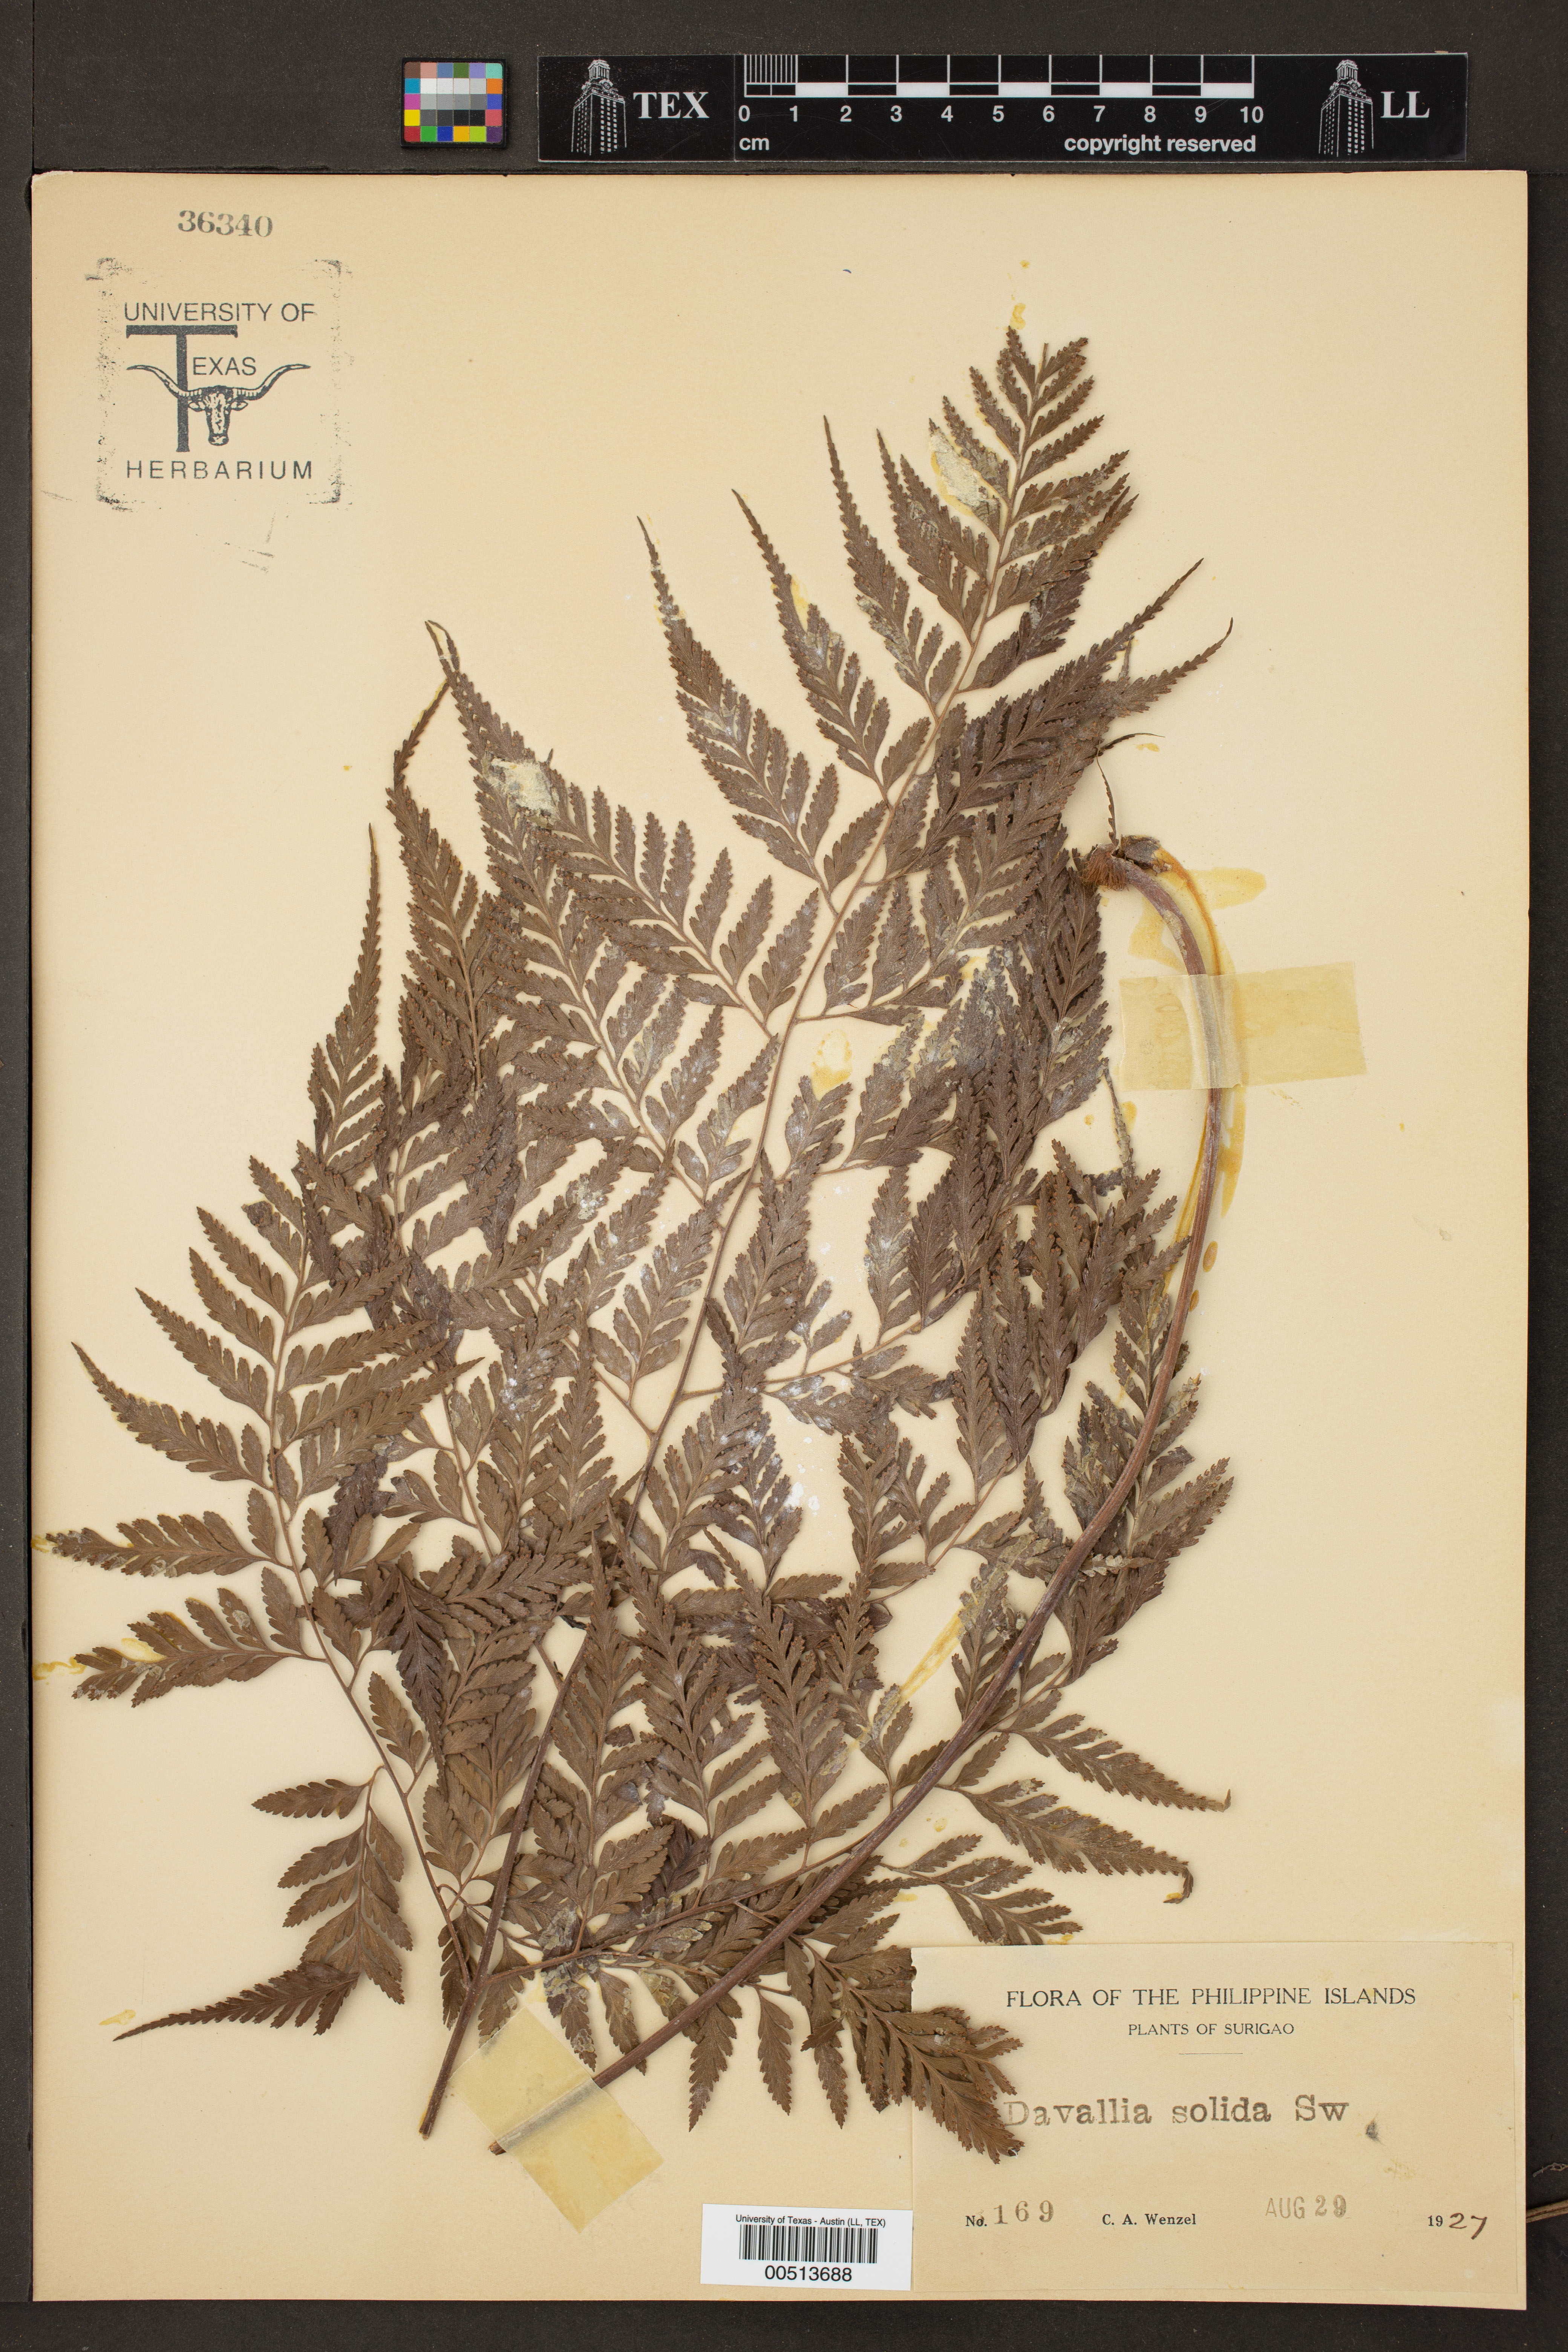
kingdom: Plantae
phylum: Tracheophyta
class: Polypodiopsida
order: Polypodiales
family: Davalliaceae
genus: Davallia
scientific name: Davallia solida
